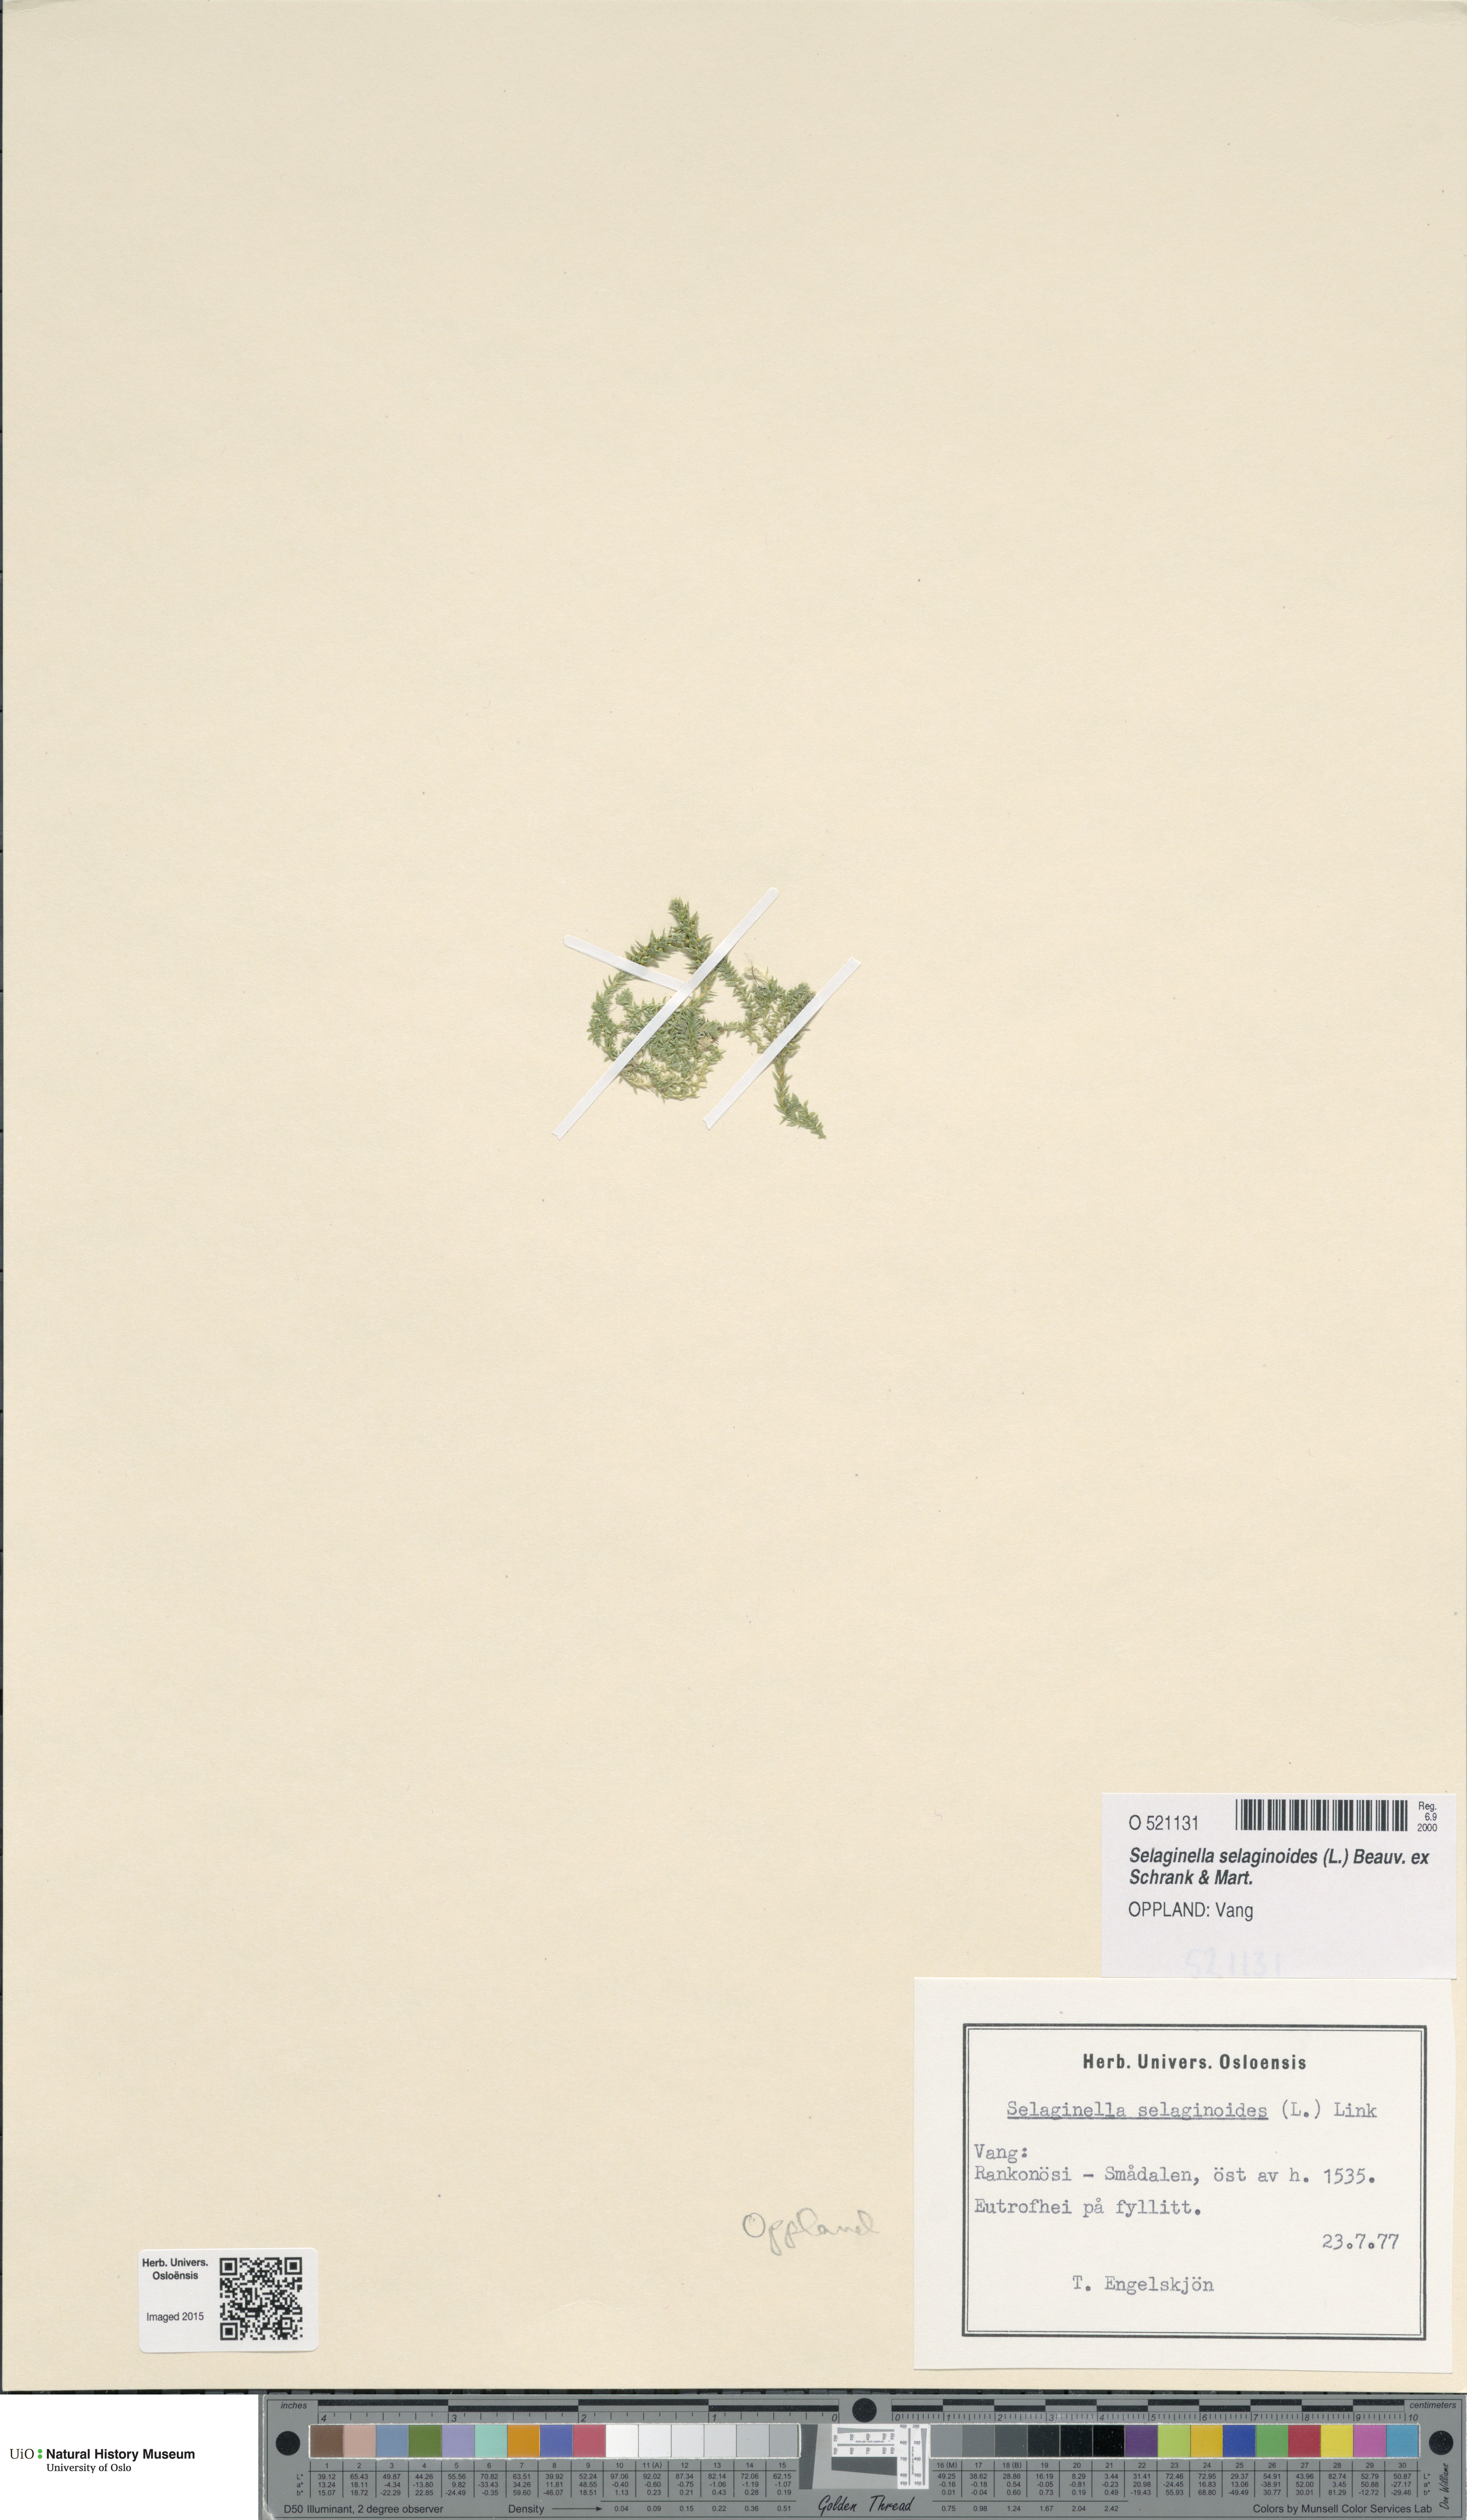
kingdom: Plantae
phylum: Tracheophyta
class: Lycopodiopsida
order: Selaginellales
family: Selaginellaceae
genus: Selaginella
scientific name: Selaginella selaginoides
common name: Prickly mountain-moss
